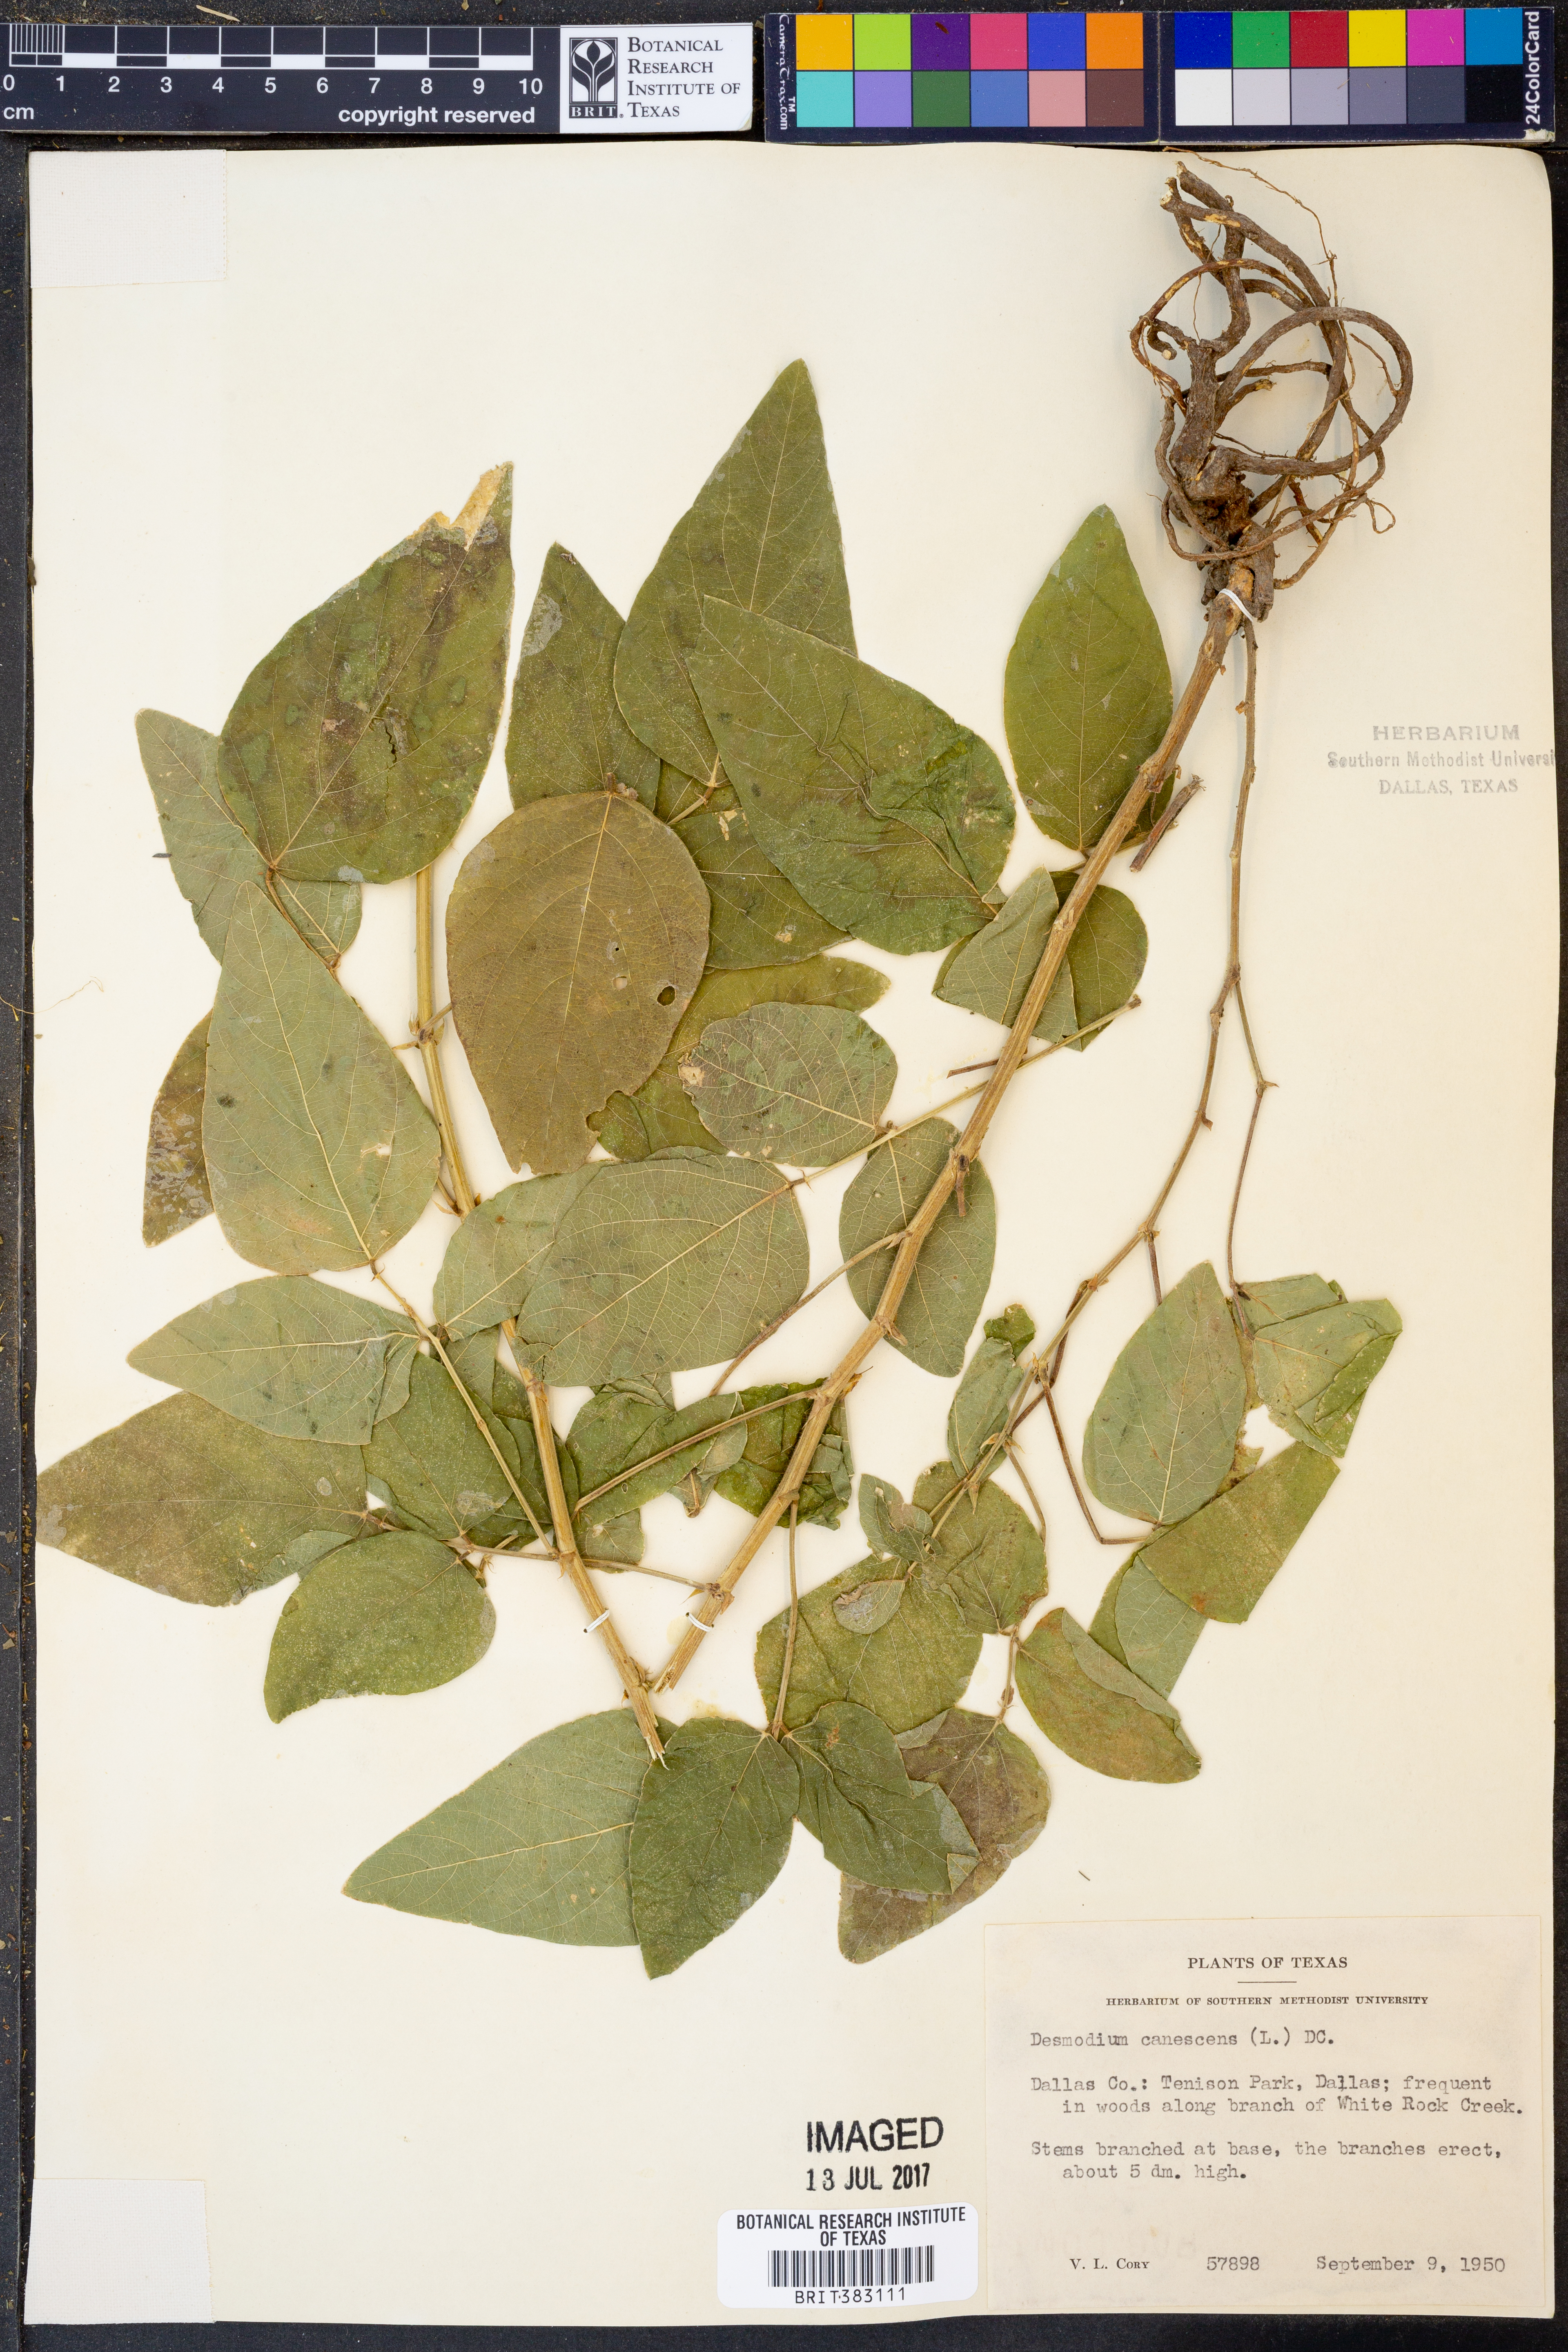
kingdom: Plantae
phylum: Tracheophyta
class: Magnoliopsida
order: Fabales
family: Fabaceae
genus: Desmodium
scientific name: Desmodium canescens
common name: Hoary tick-clover
